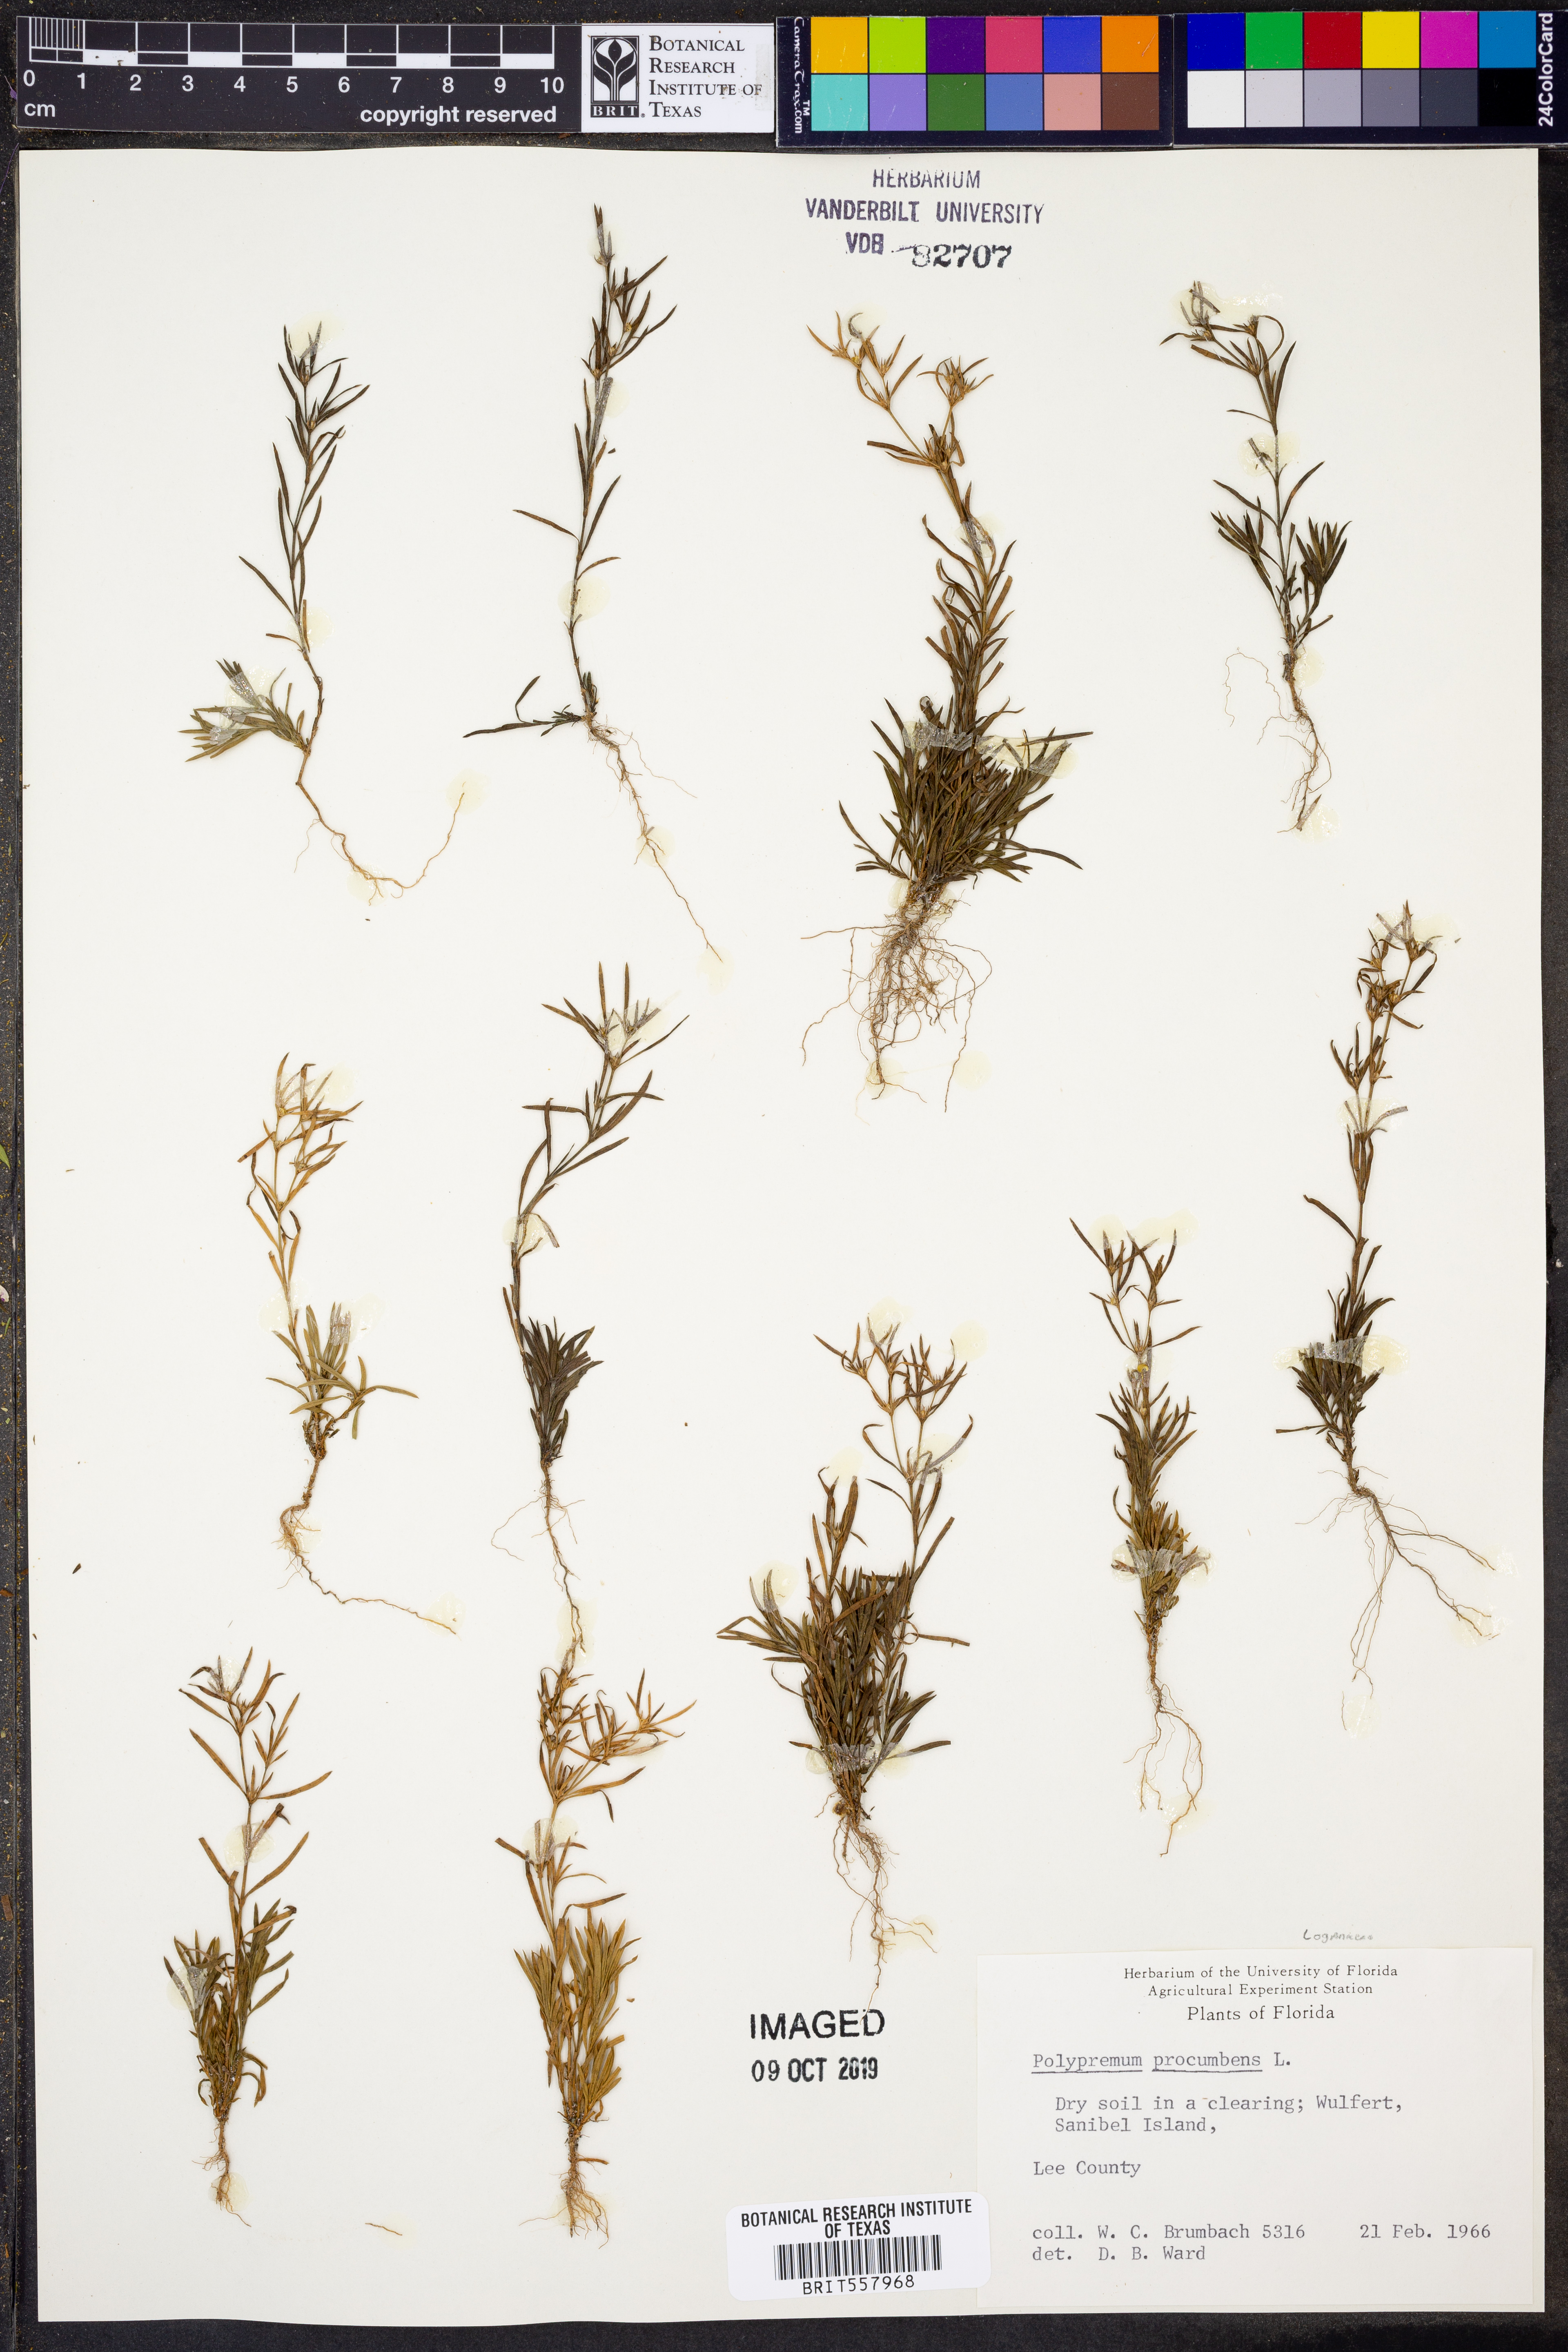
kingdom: Plantae
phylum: Tracheophyta
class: Magnoliopsida
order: Lamiales
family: Tetrachondraceae
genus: Polypremum
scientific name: Polypremum procumbens
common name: Juniper-leaf
